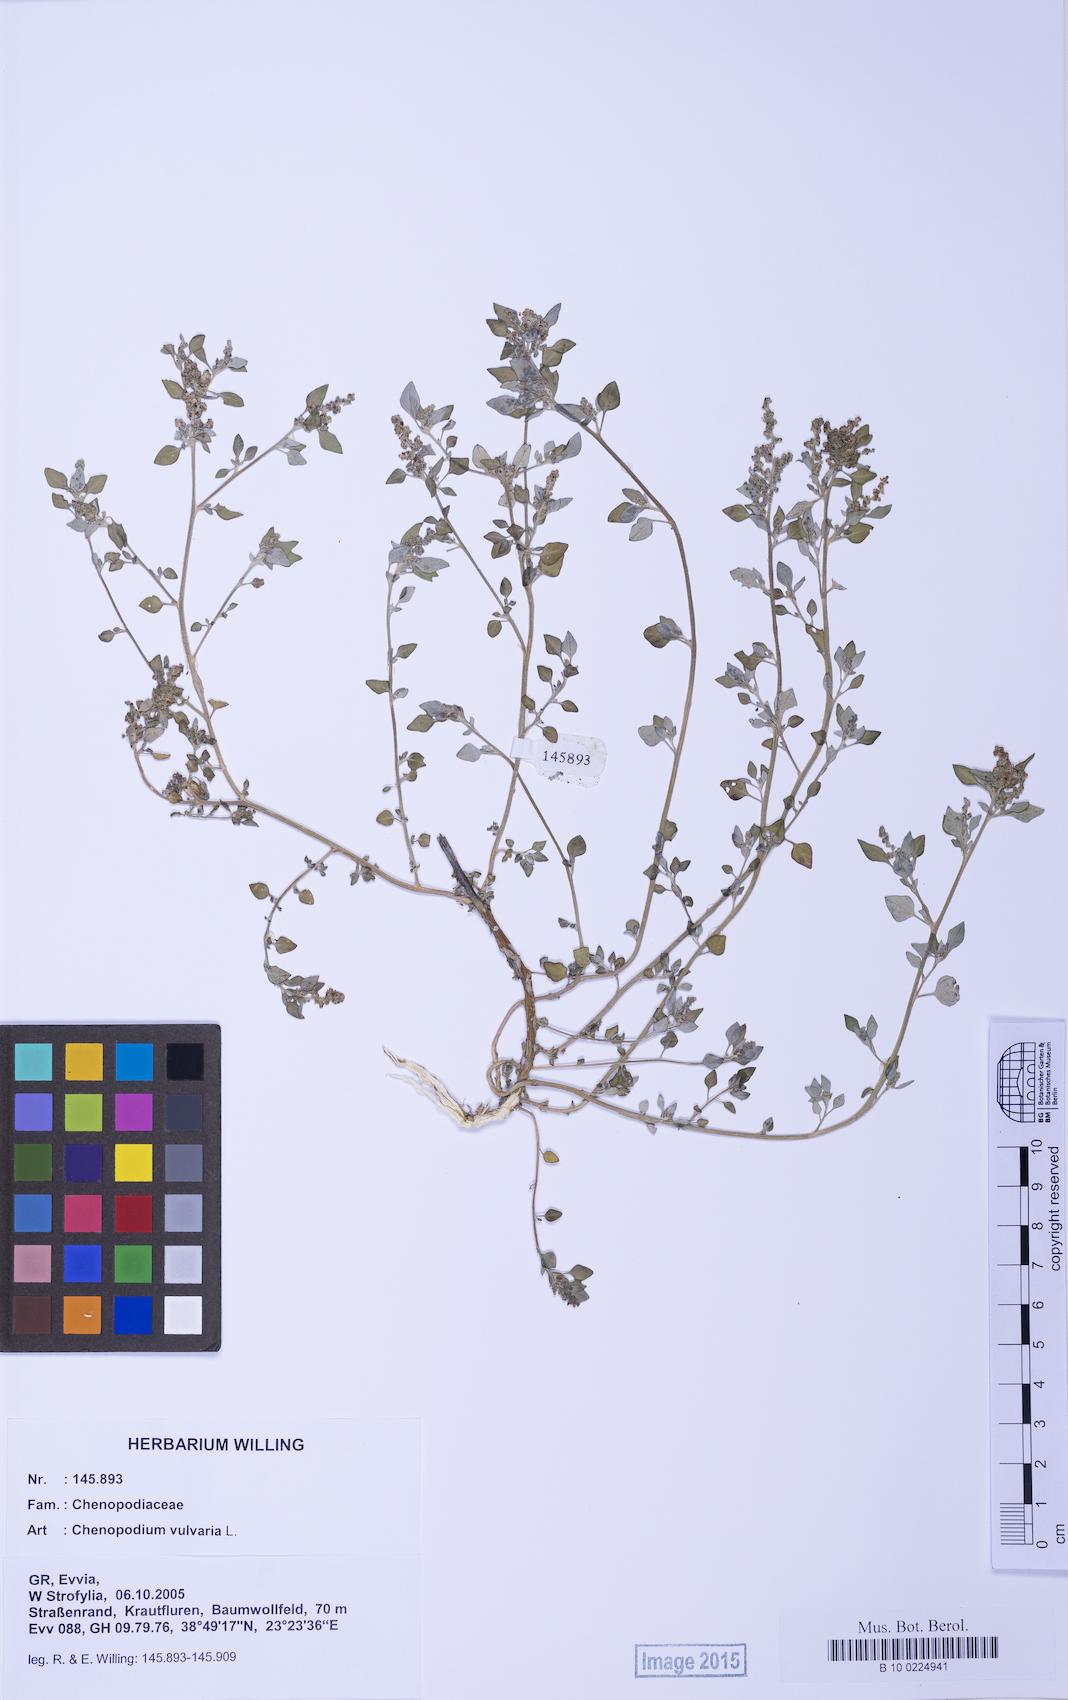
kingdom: Plantae
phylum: Tracheophyta
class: Magnoliopsida
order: Caryophyllales
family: Amaranthaceae
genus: Chenopodium
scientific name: Chenopodium vulvaria
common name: Stinking goosefoot
